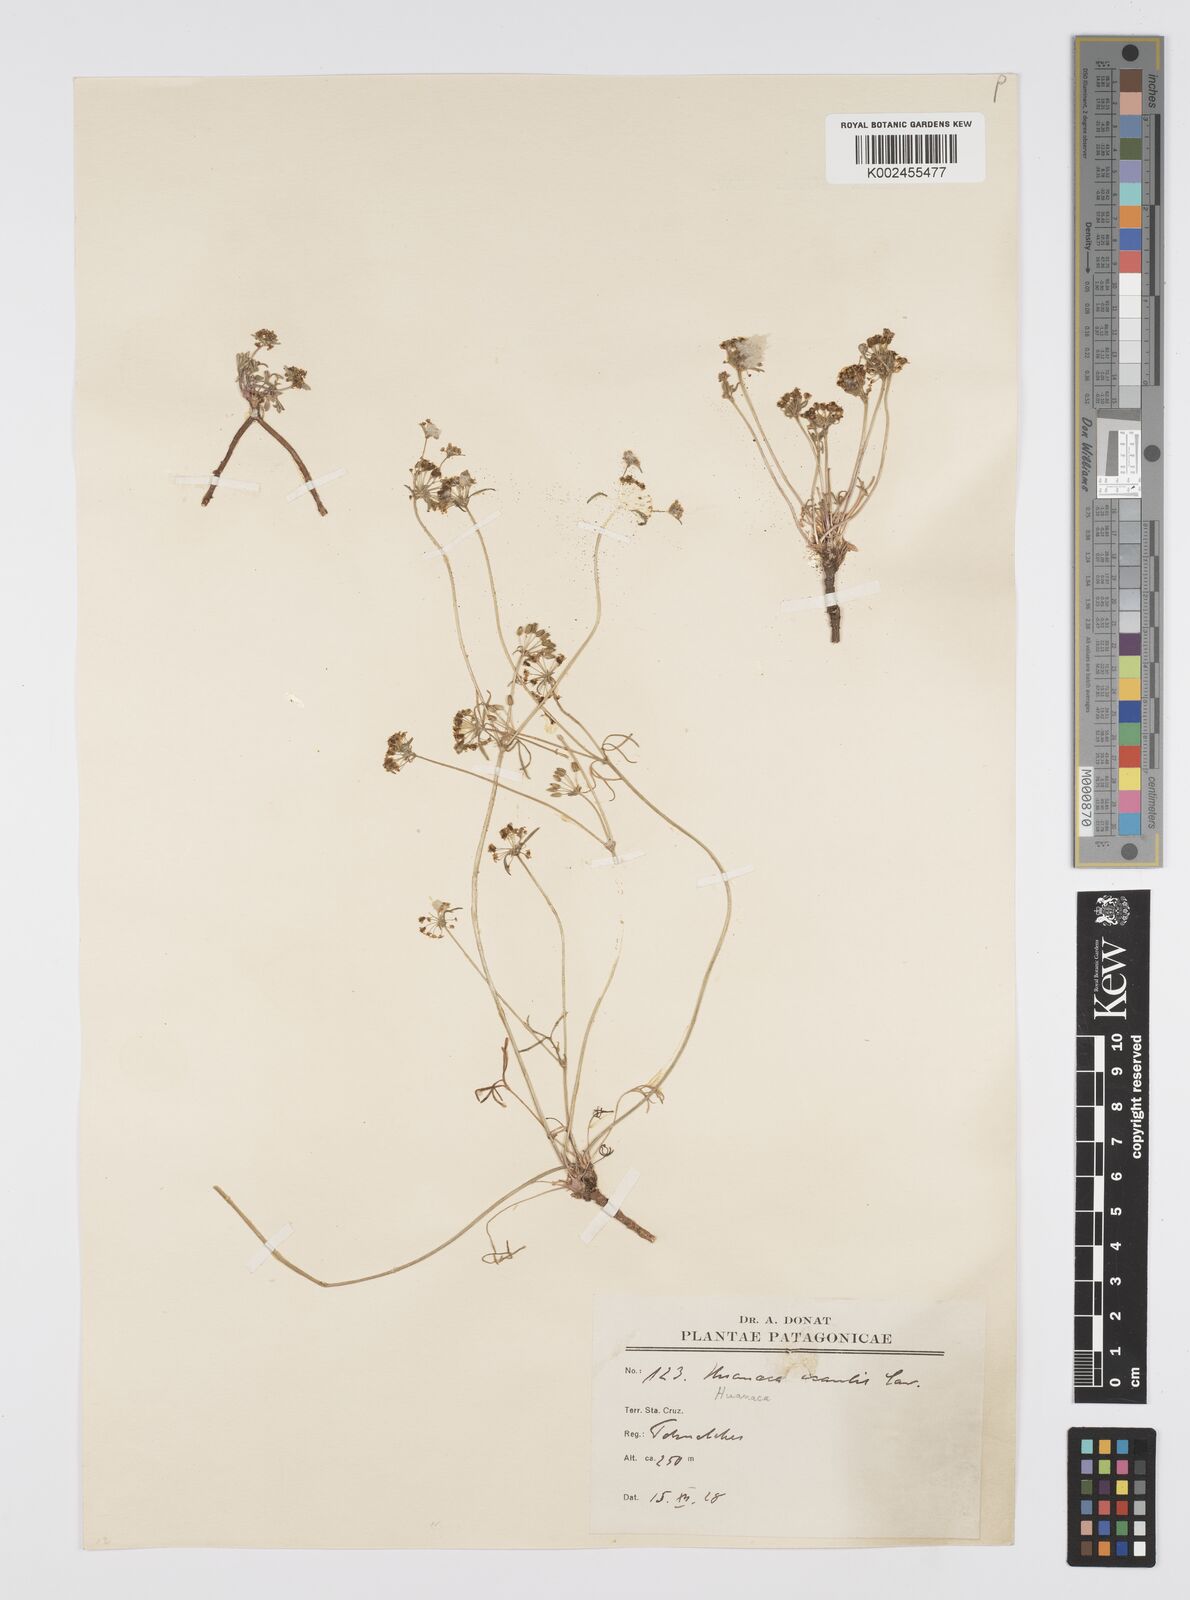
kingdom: Plantae
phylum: Tracheophyta
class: Magnoliopsida
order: Apiales
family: Apiaceae
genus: Azorella
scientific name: Azorella acaulis
